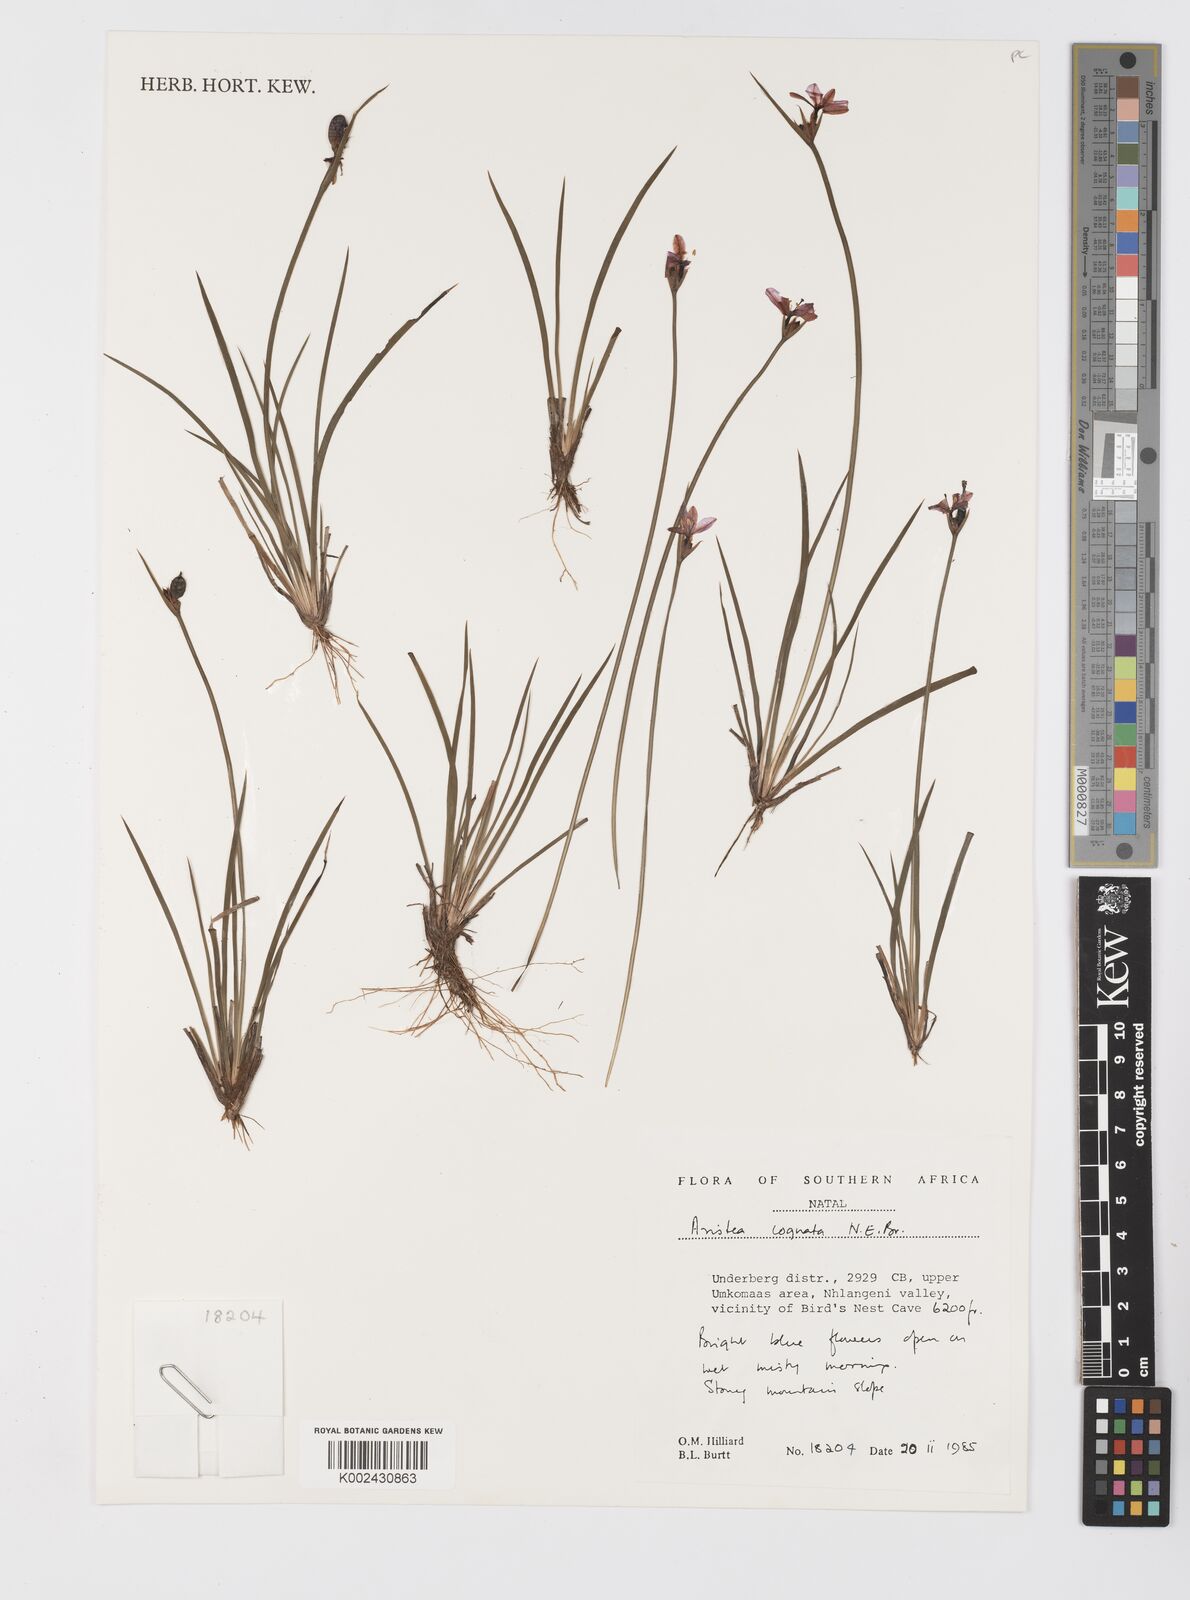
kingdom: Plantae
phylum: Tracheophyta
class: Liliopsida
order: Asparagales
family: Iridaceae
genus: Aristea
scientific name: Aristea abyssinica
